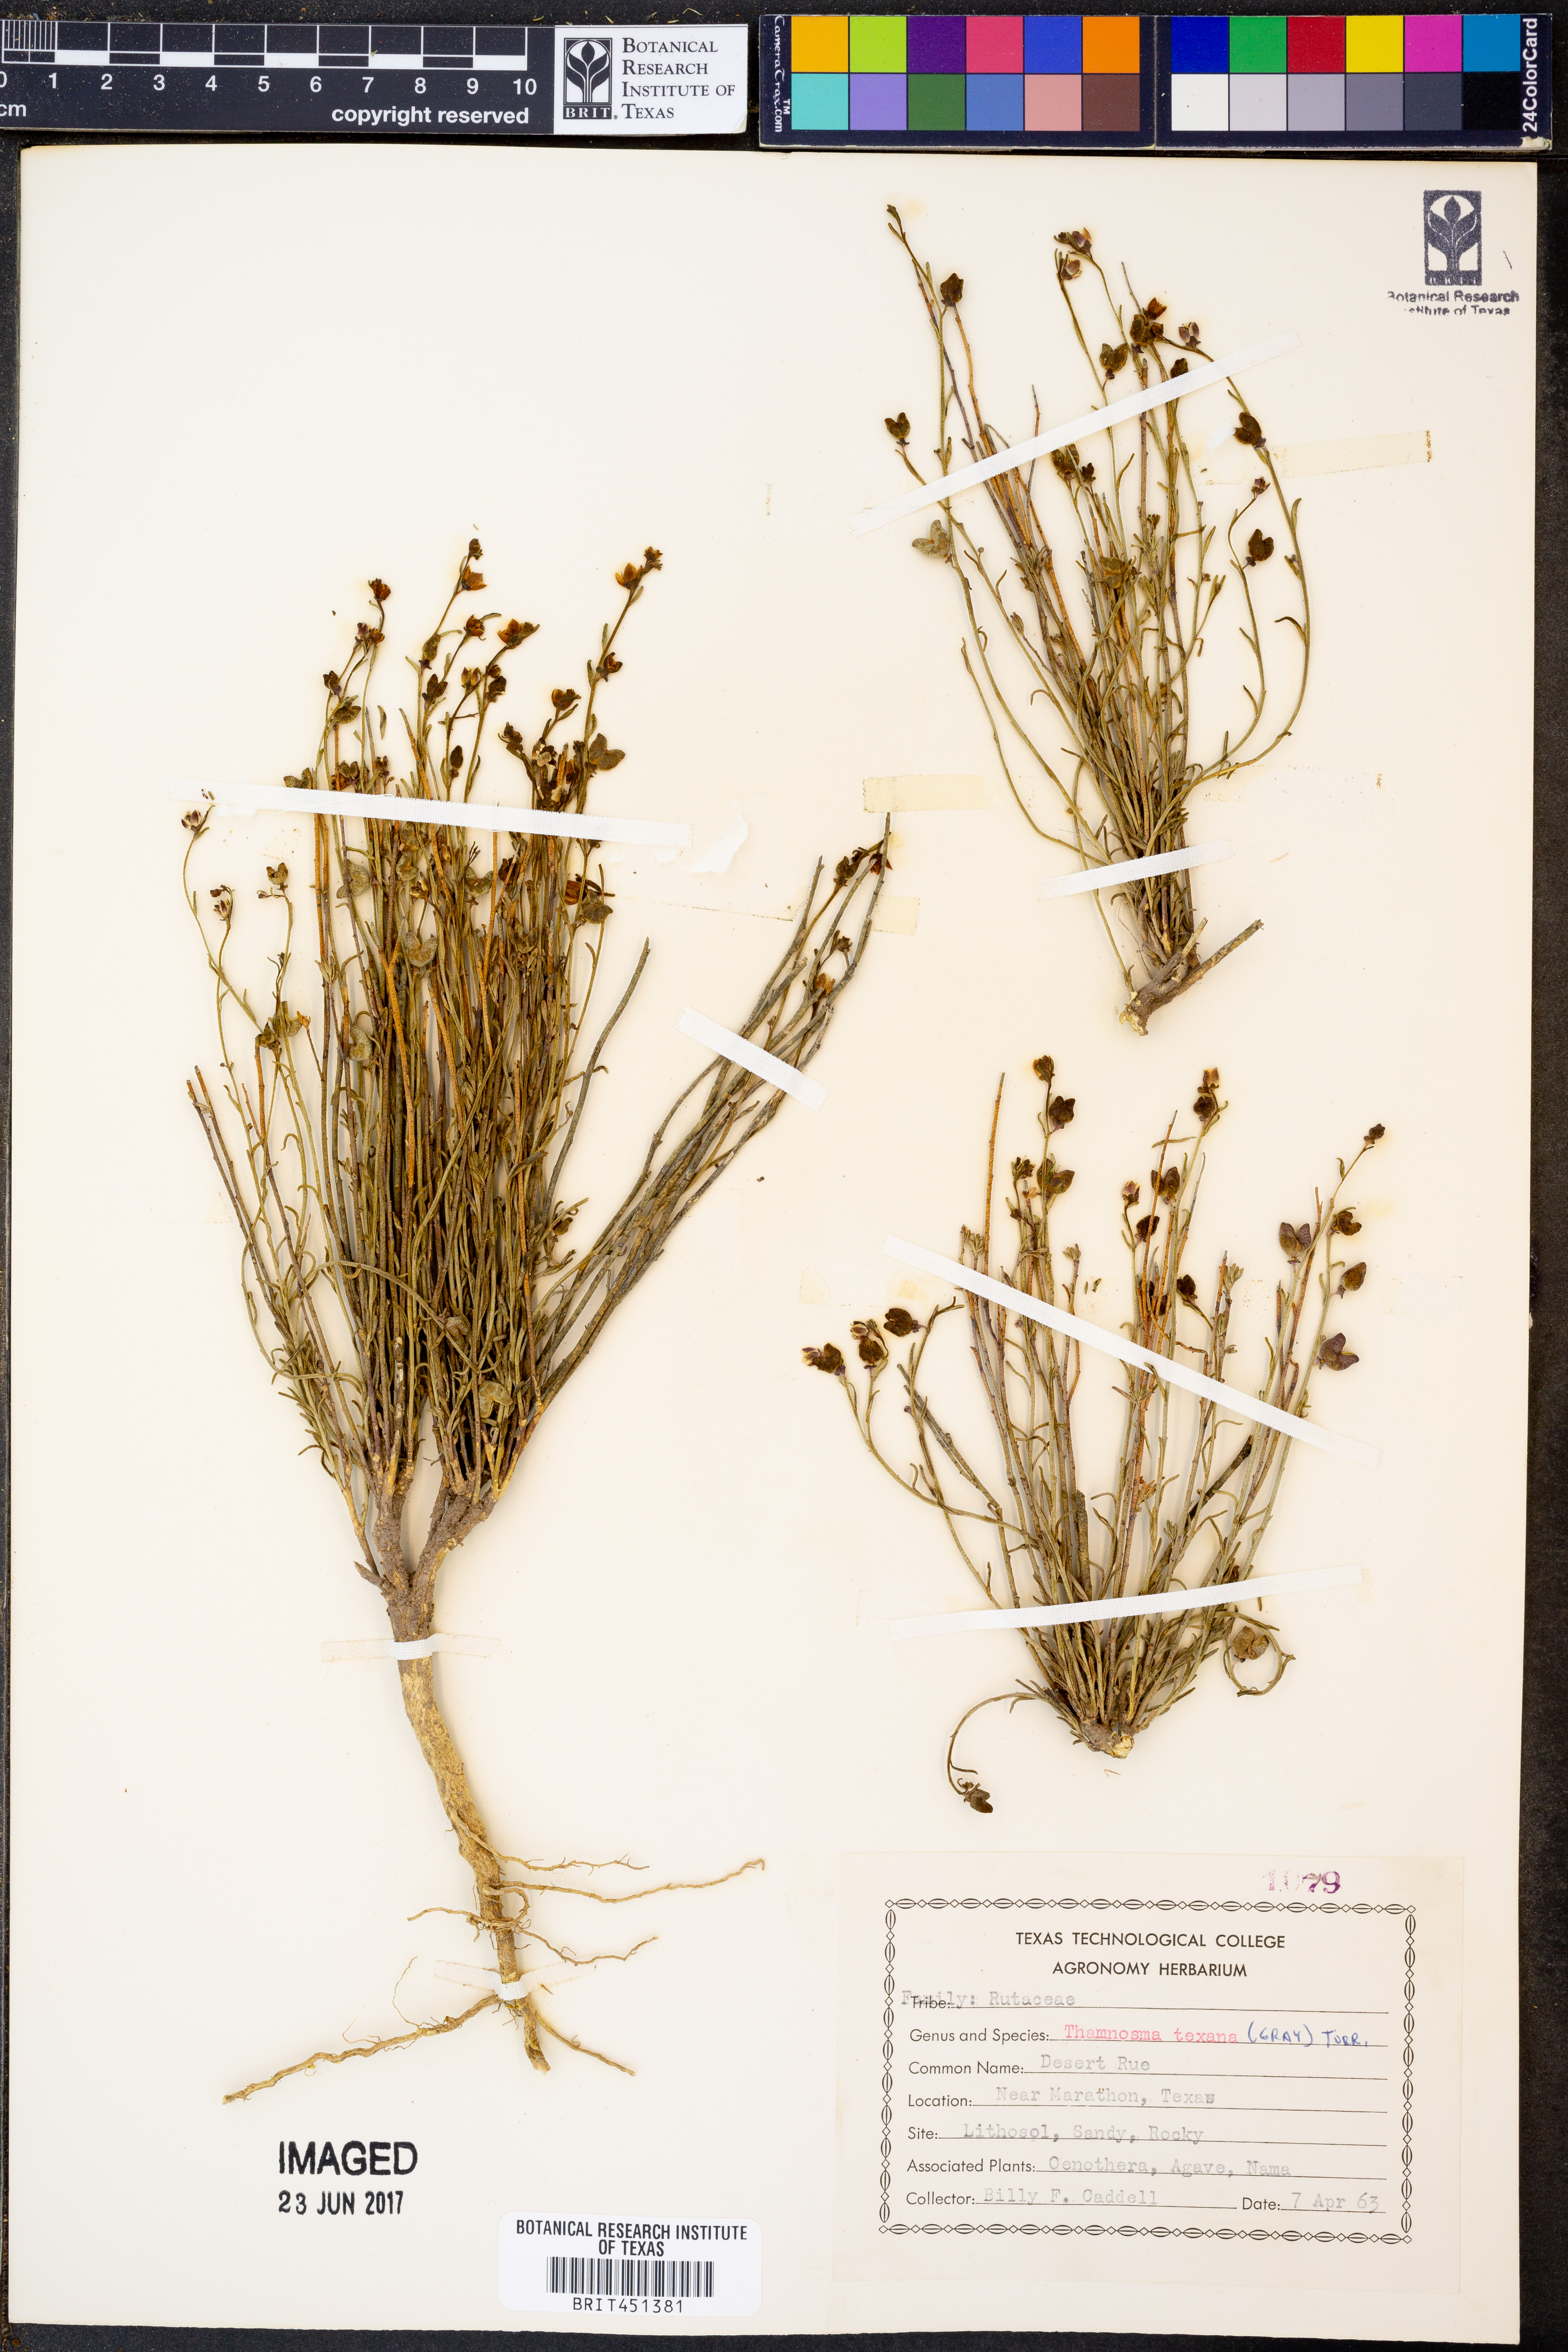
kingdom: Plantae
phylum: Tracheophyta
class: Magnoliopsida
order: Sapindales
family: Rutaceae
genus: Thamnosma
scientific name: Thamnosma texana
